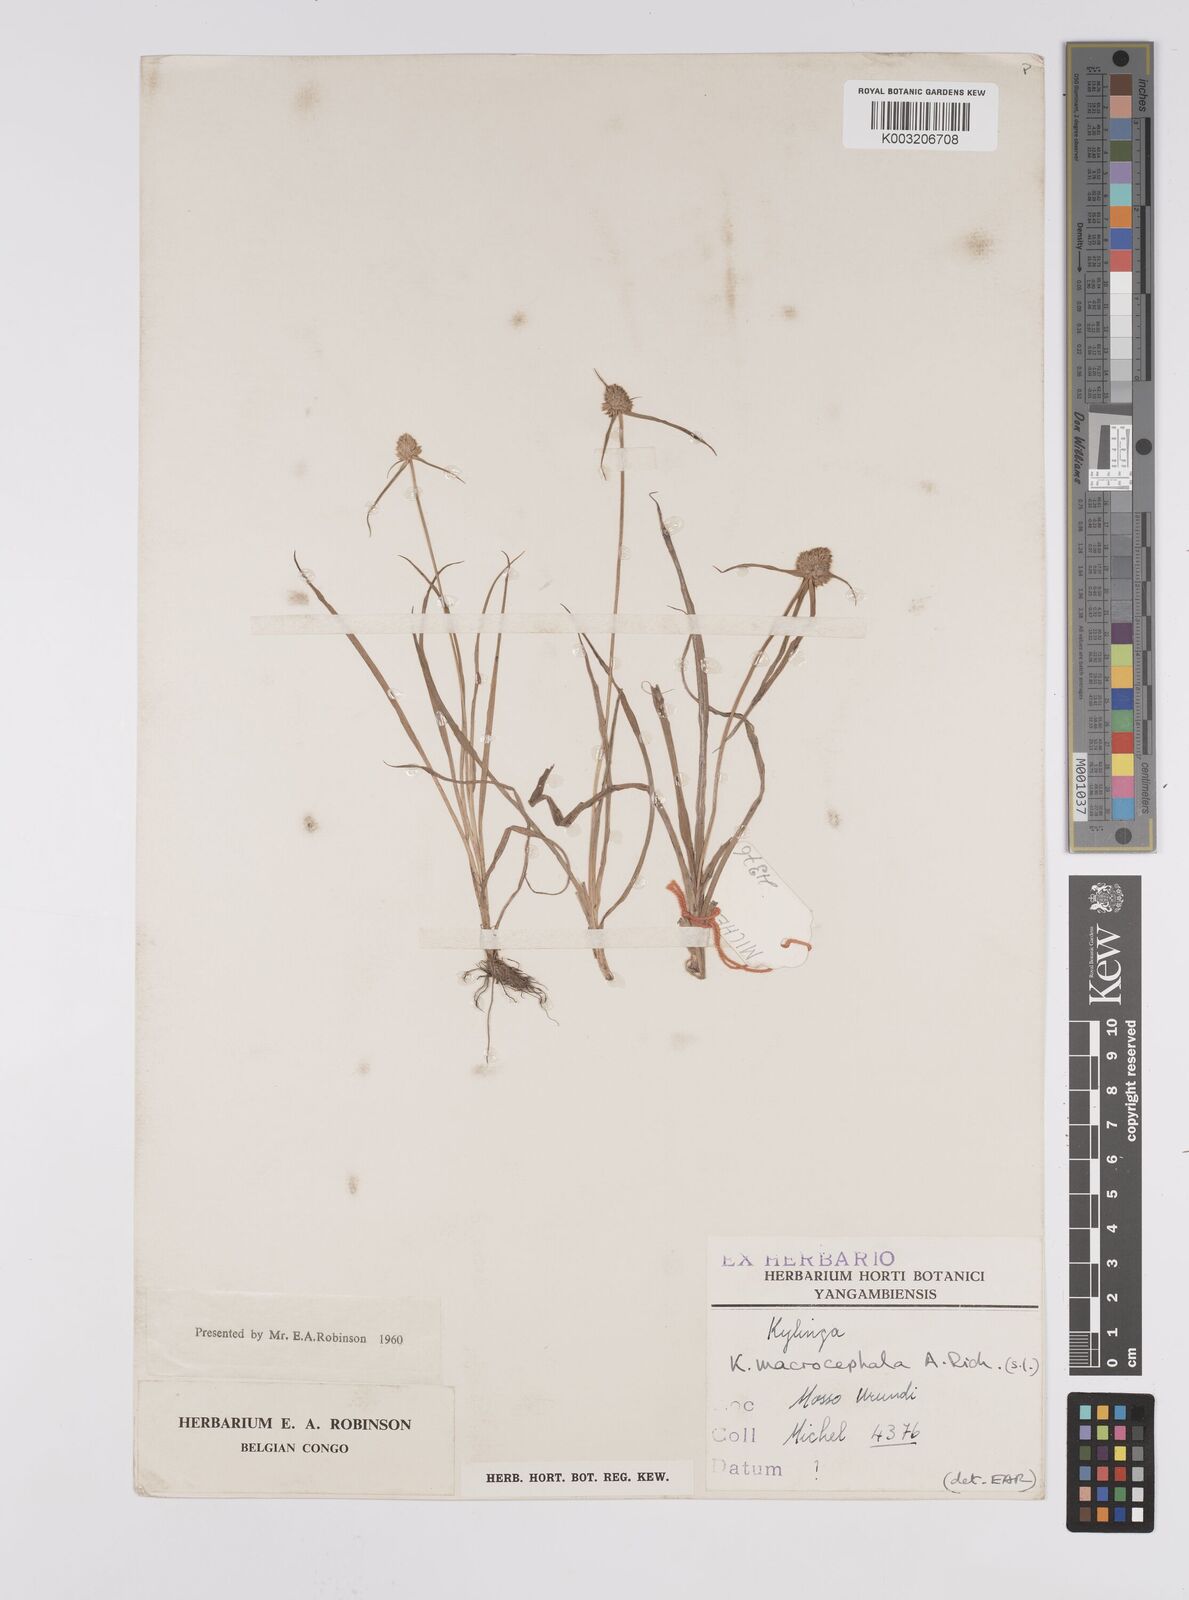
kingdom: Plantae
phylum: Tracheophyta
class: Liliopsida
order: Poales
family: Cyperaceae
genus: Cyperus
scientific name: Cyperus conglobatus
